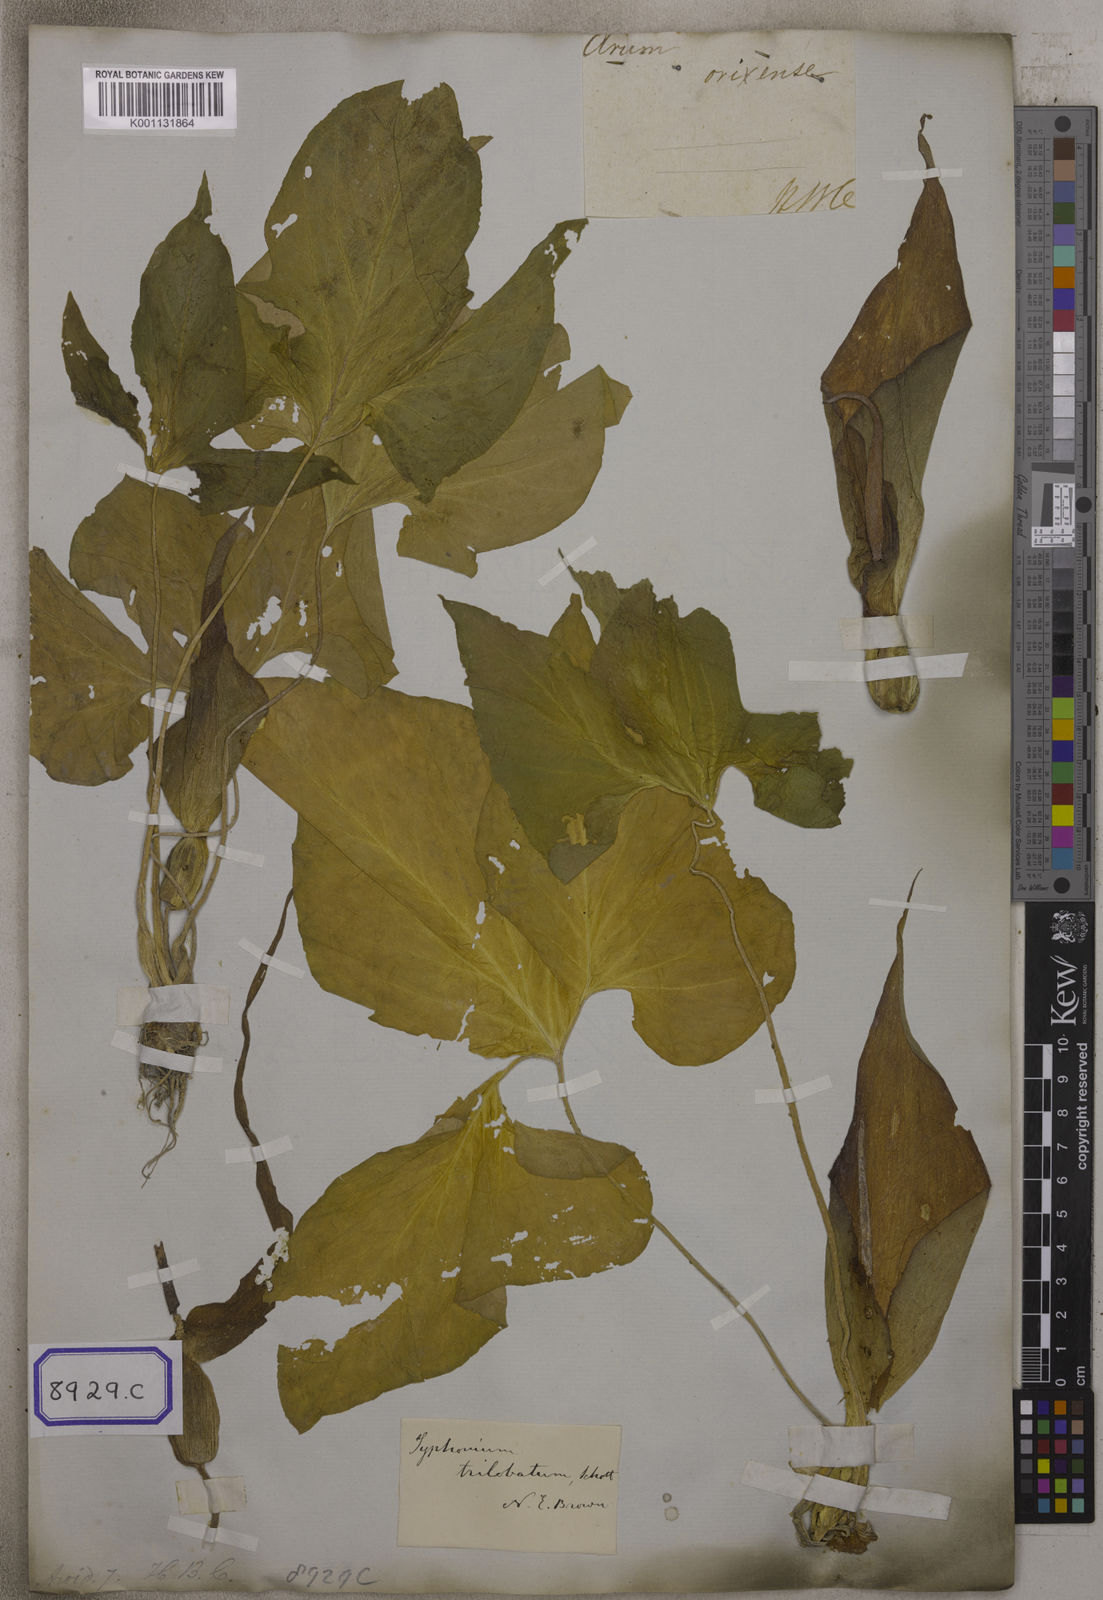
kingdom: Plantae
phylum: Tracheophyta
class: Liliopsida
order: Alismatales
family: Araceae
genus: Typhonium
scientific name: Typhonium trilobatum
